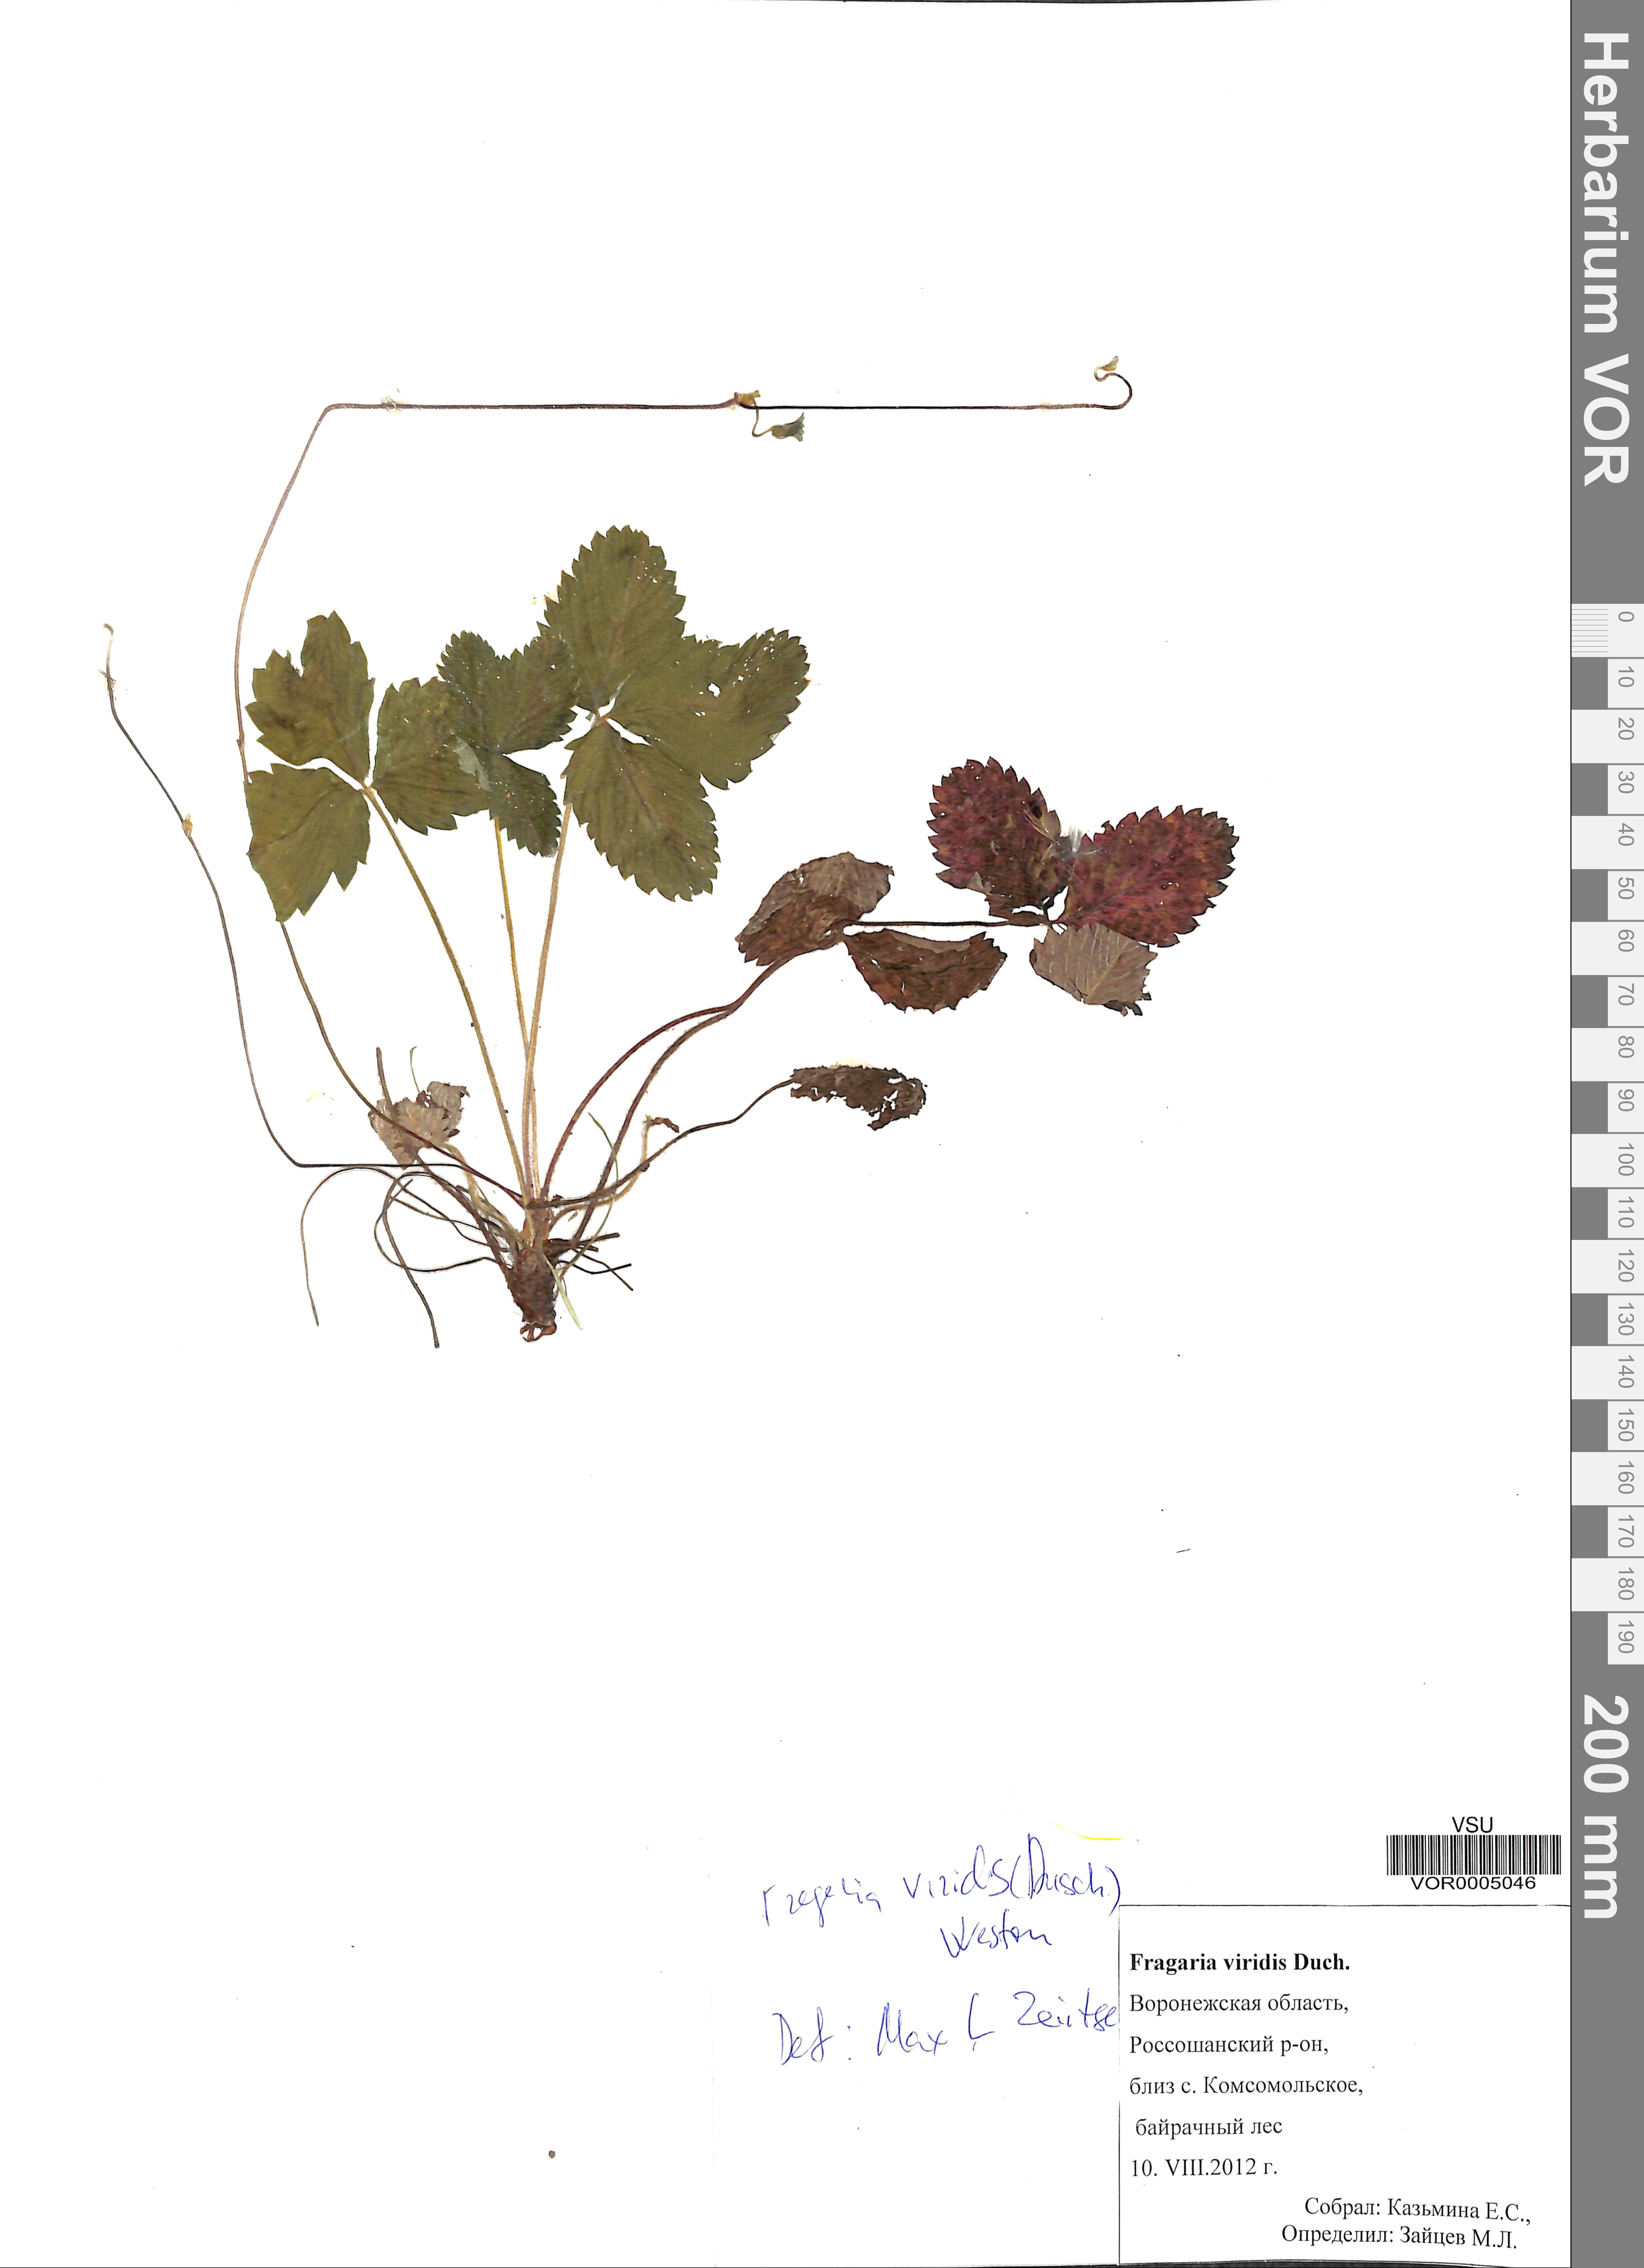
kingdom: Plantae
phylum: Tracheophyta
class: Magnoliopsida
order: Rosales
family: Rosaceae
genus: Fragaria
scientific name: Fragaria viridis
